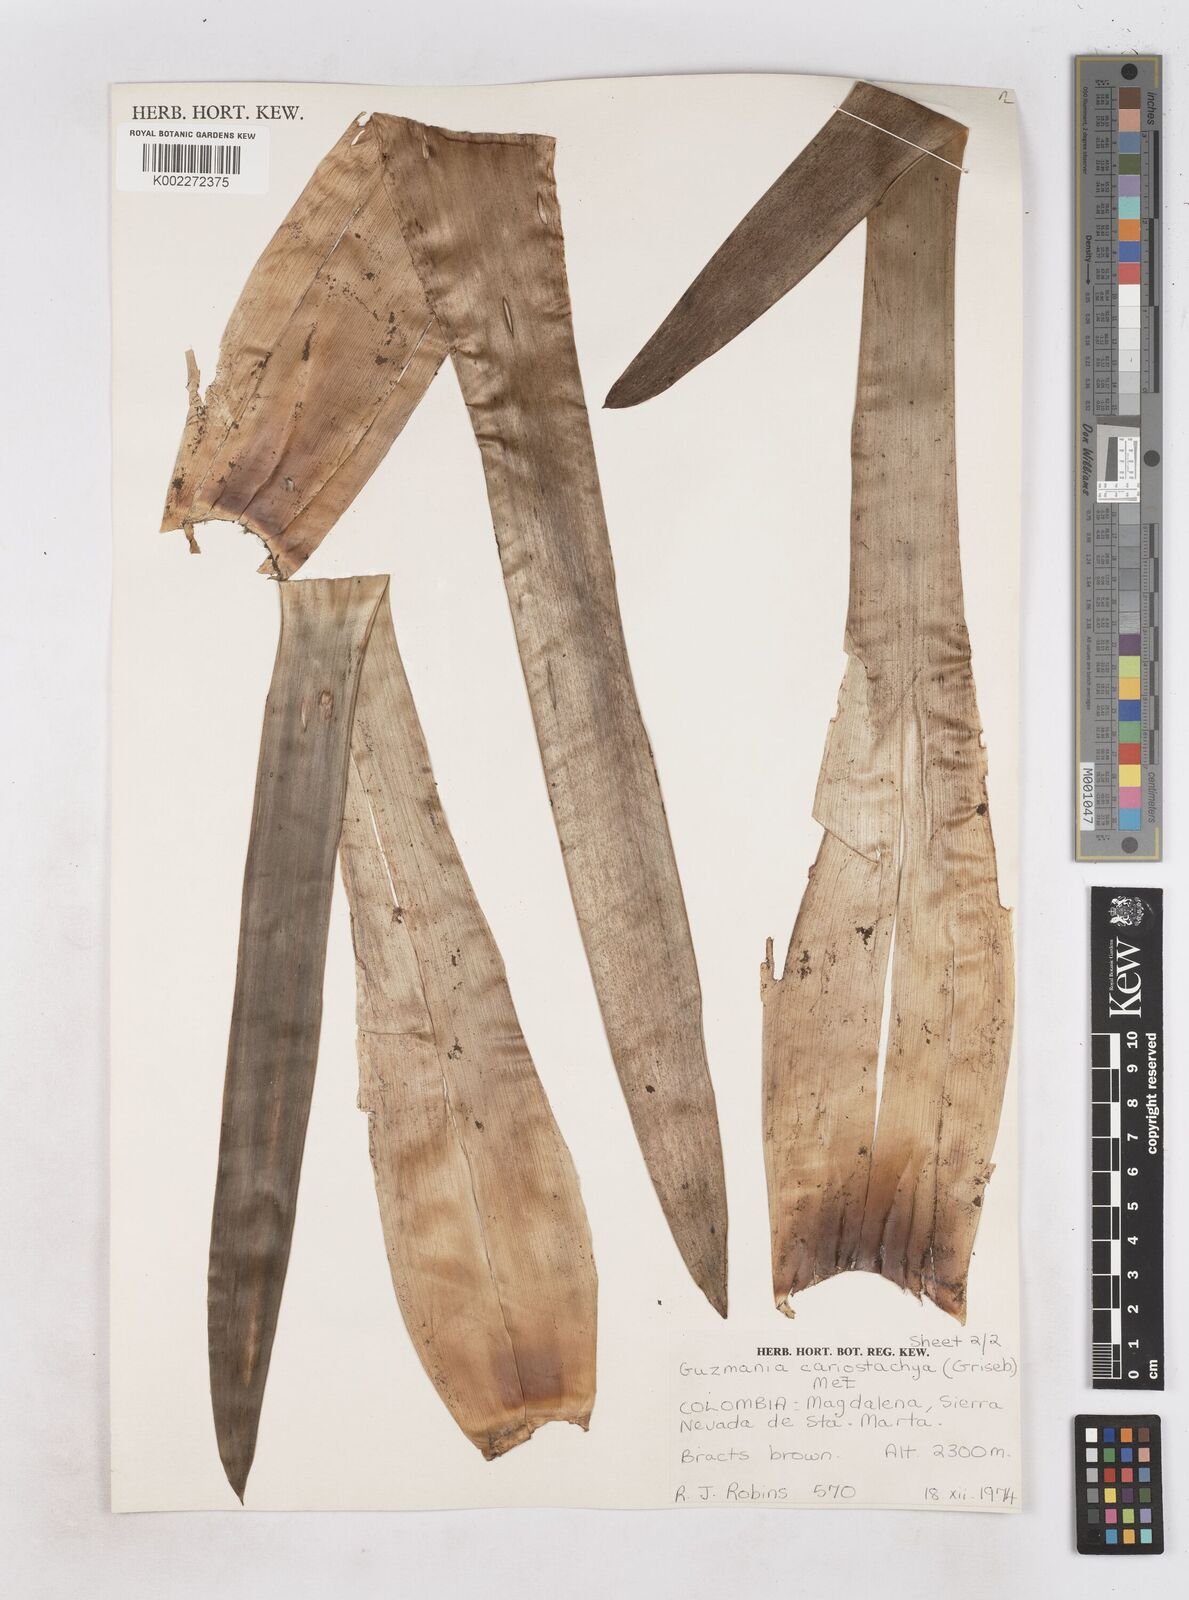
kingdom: Plantae
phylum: Tracheophyta
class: Liliopsida
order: Poales
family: Bromeliaceae
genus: Guzmania
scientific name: Guzmania coriostachya
